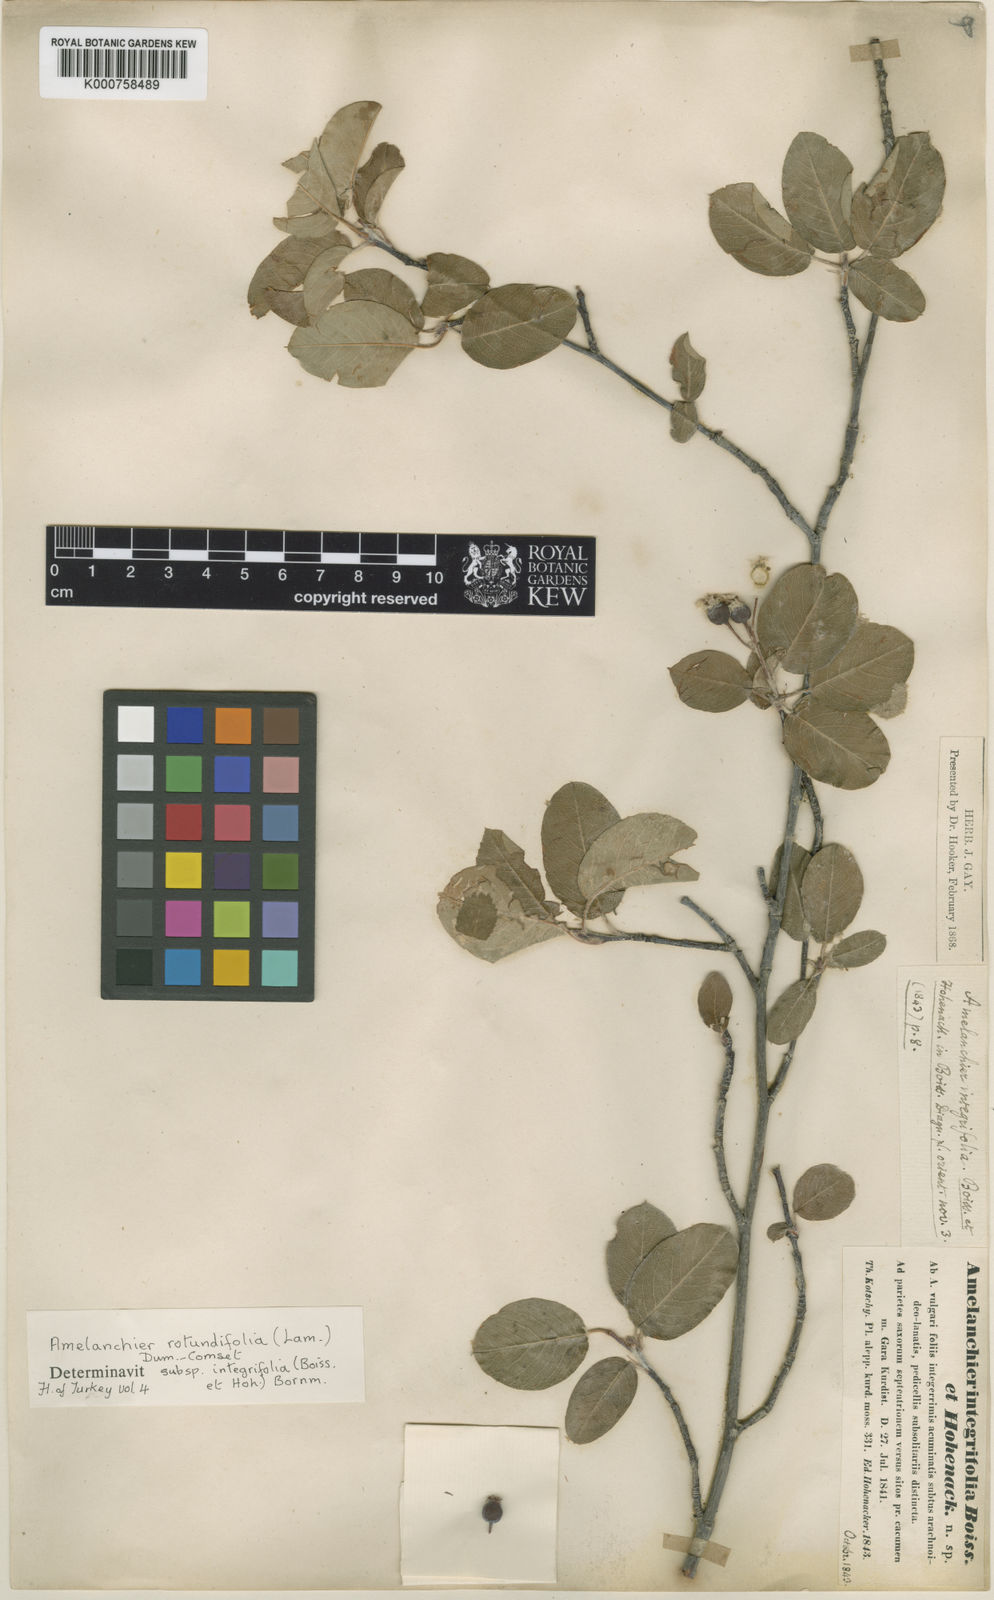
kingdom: Plantae
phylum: Tracheophyta
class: Magnoliopsida
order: Rosales
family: Rosaceae
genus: Amelanchier
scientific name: Amelanchier ovalis
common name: Serviceberry
